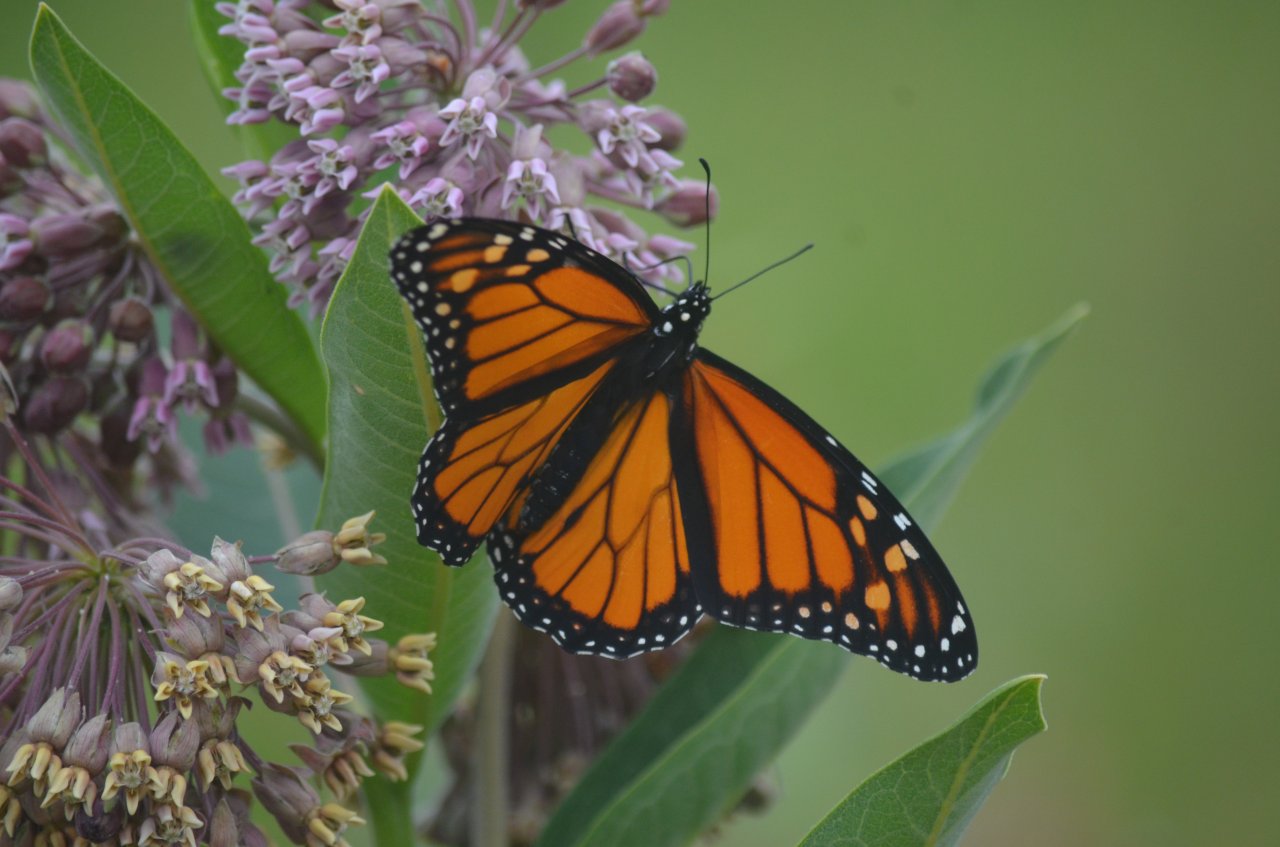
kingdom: Animalia
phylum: Arthropoda
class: Insecta
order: Lepidoptera
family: Nymphalidae
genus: Danaus
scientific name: Danaus plexippus
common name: Monarch
